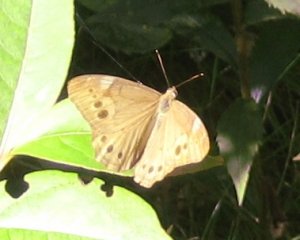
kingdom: Animalia
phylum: Arthropoda
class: Insecta
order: Lepidoptera
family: Nymphalidae
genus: Lethe
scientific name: Lethe anthedon
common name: Northern Pearly-Eye
